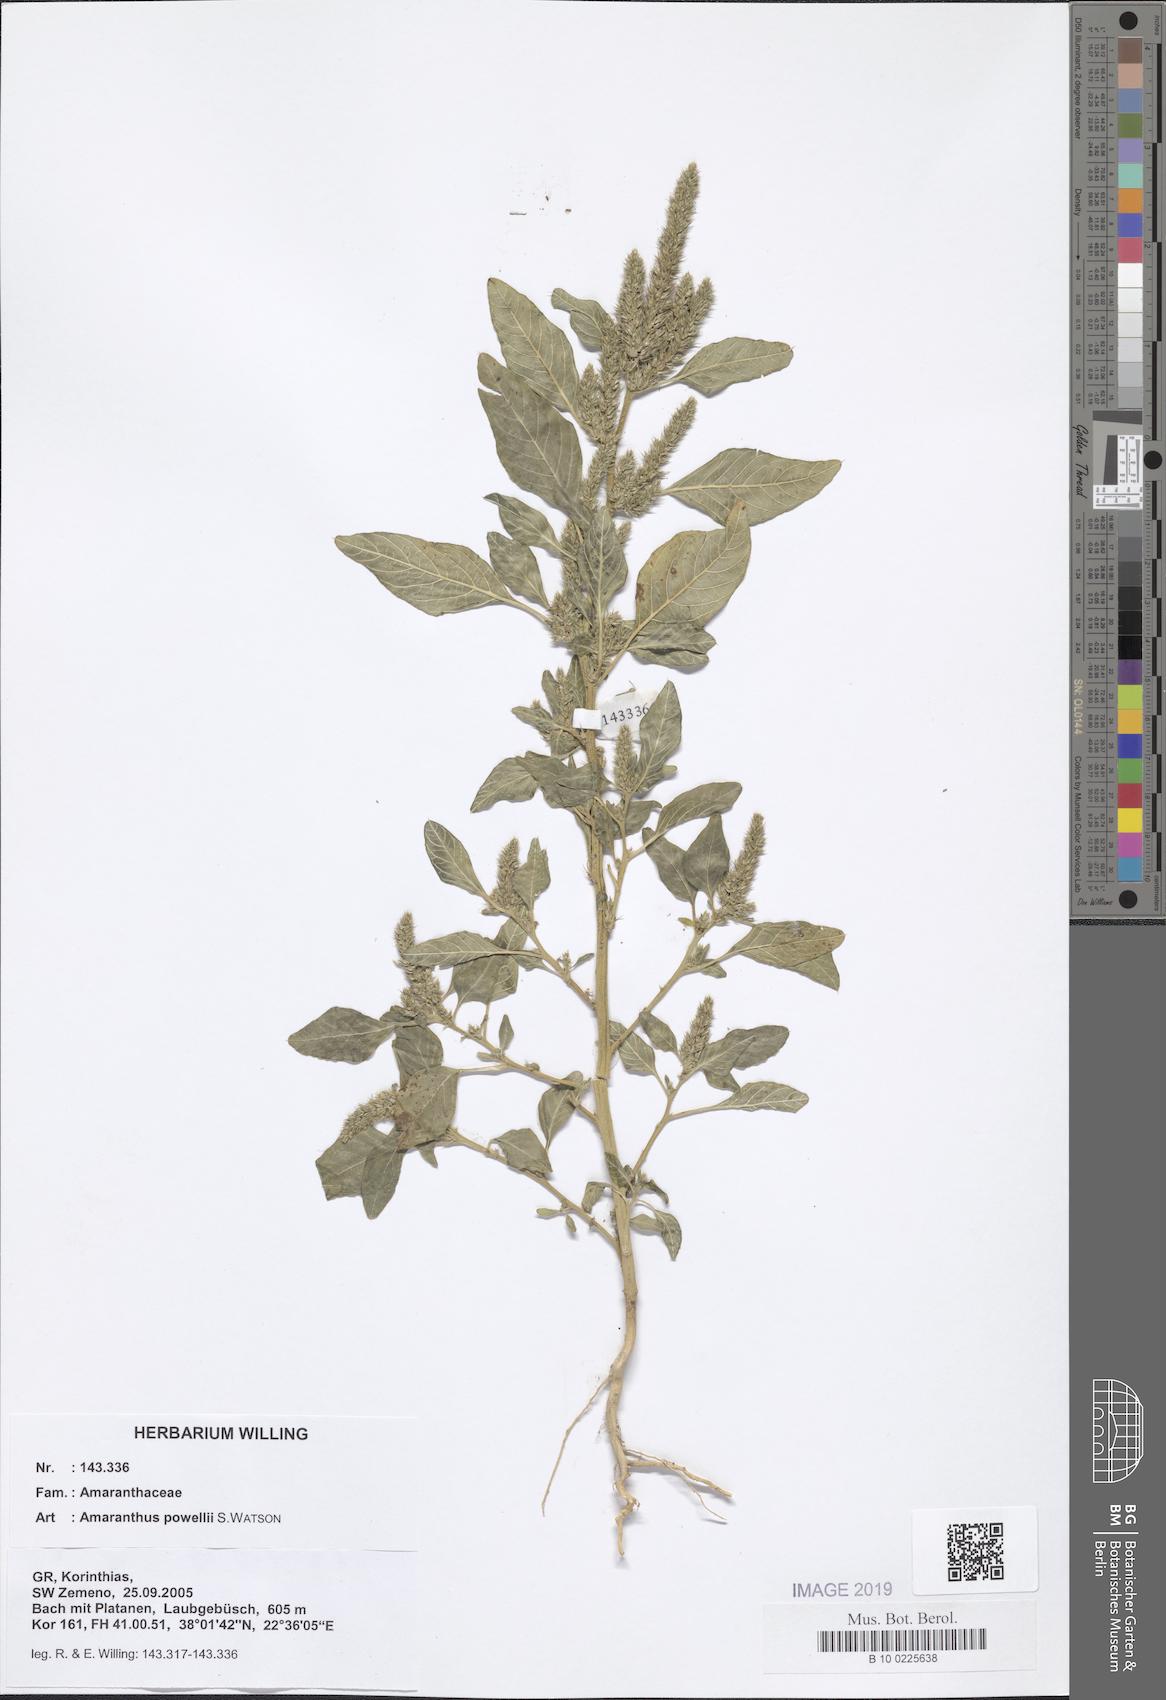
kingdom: Plantae
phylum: Tracheophyta
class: Magnoliopsida
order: Caryophyllales
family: Amaranthaceae
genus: Amaranthus
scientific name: Amaranthus powellii
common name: Powell's amaranth
